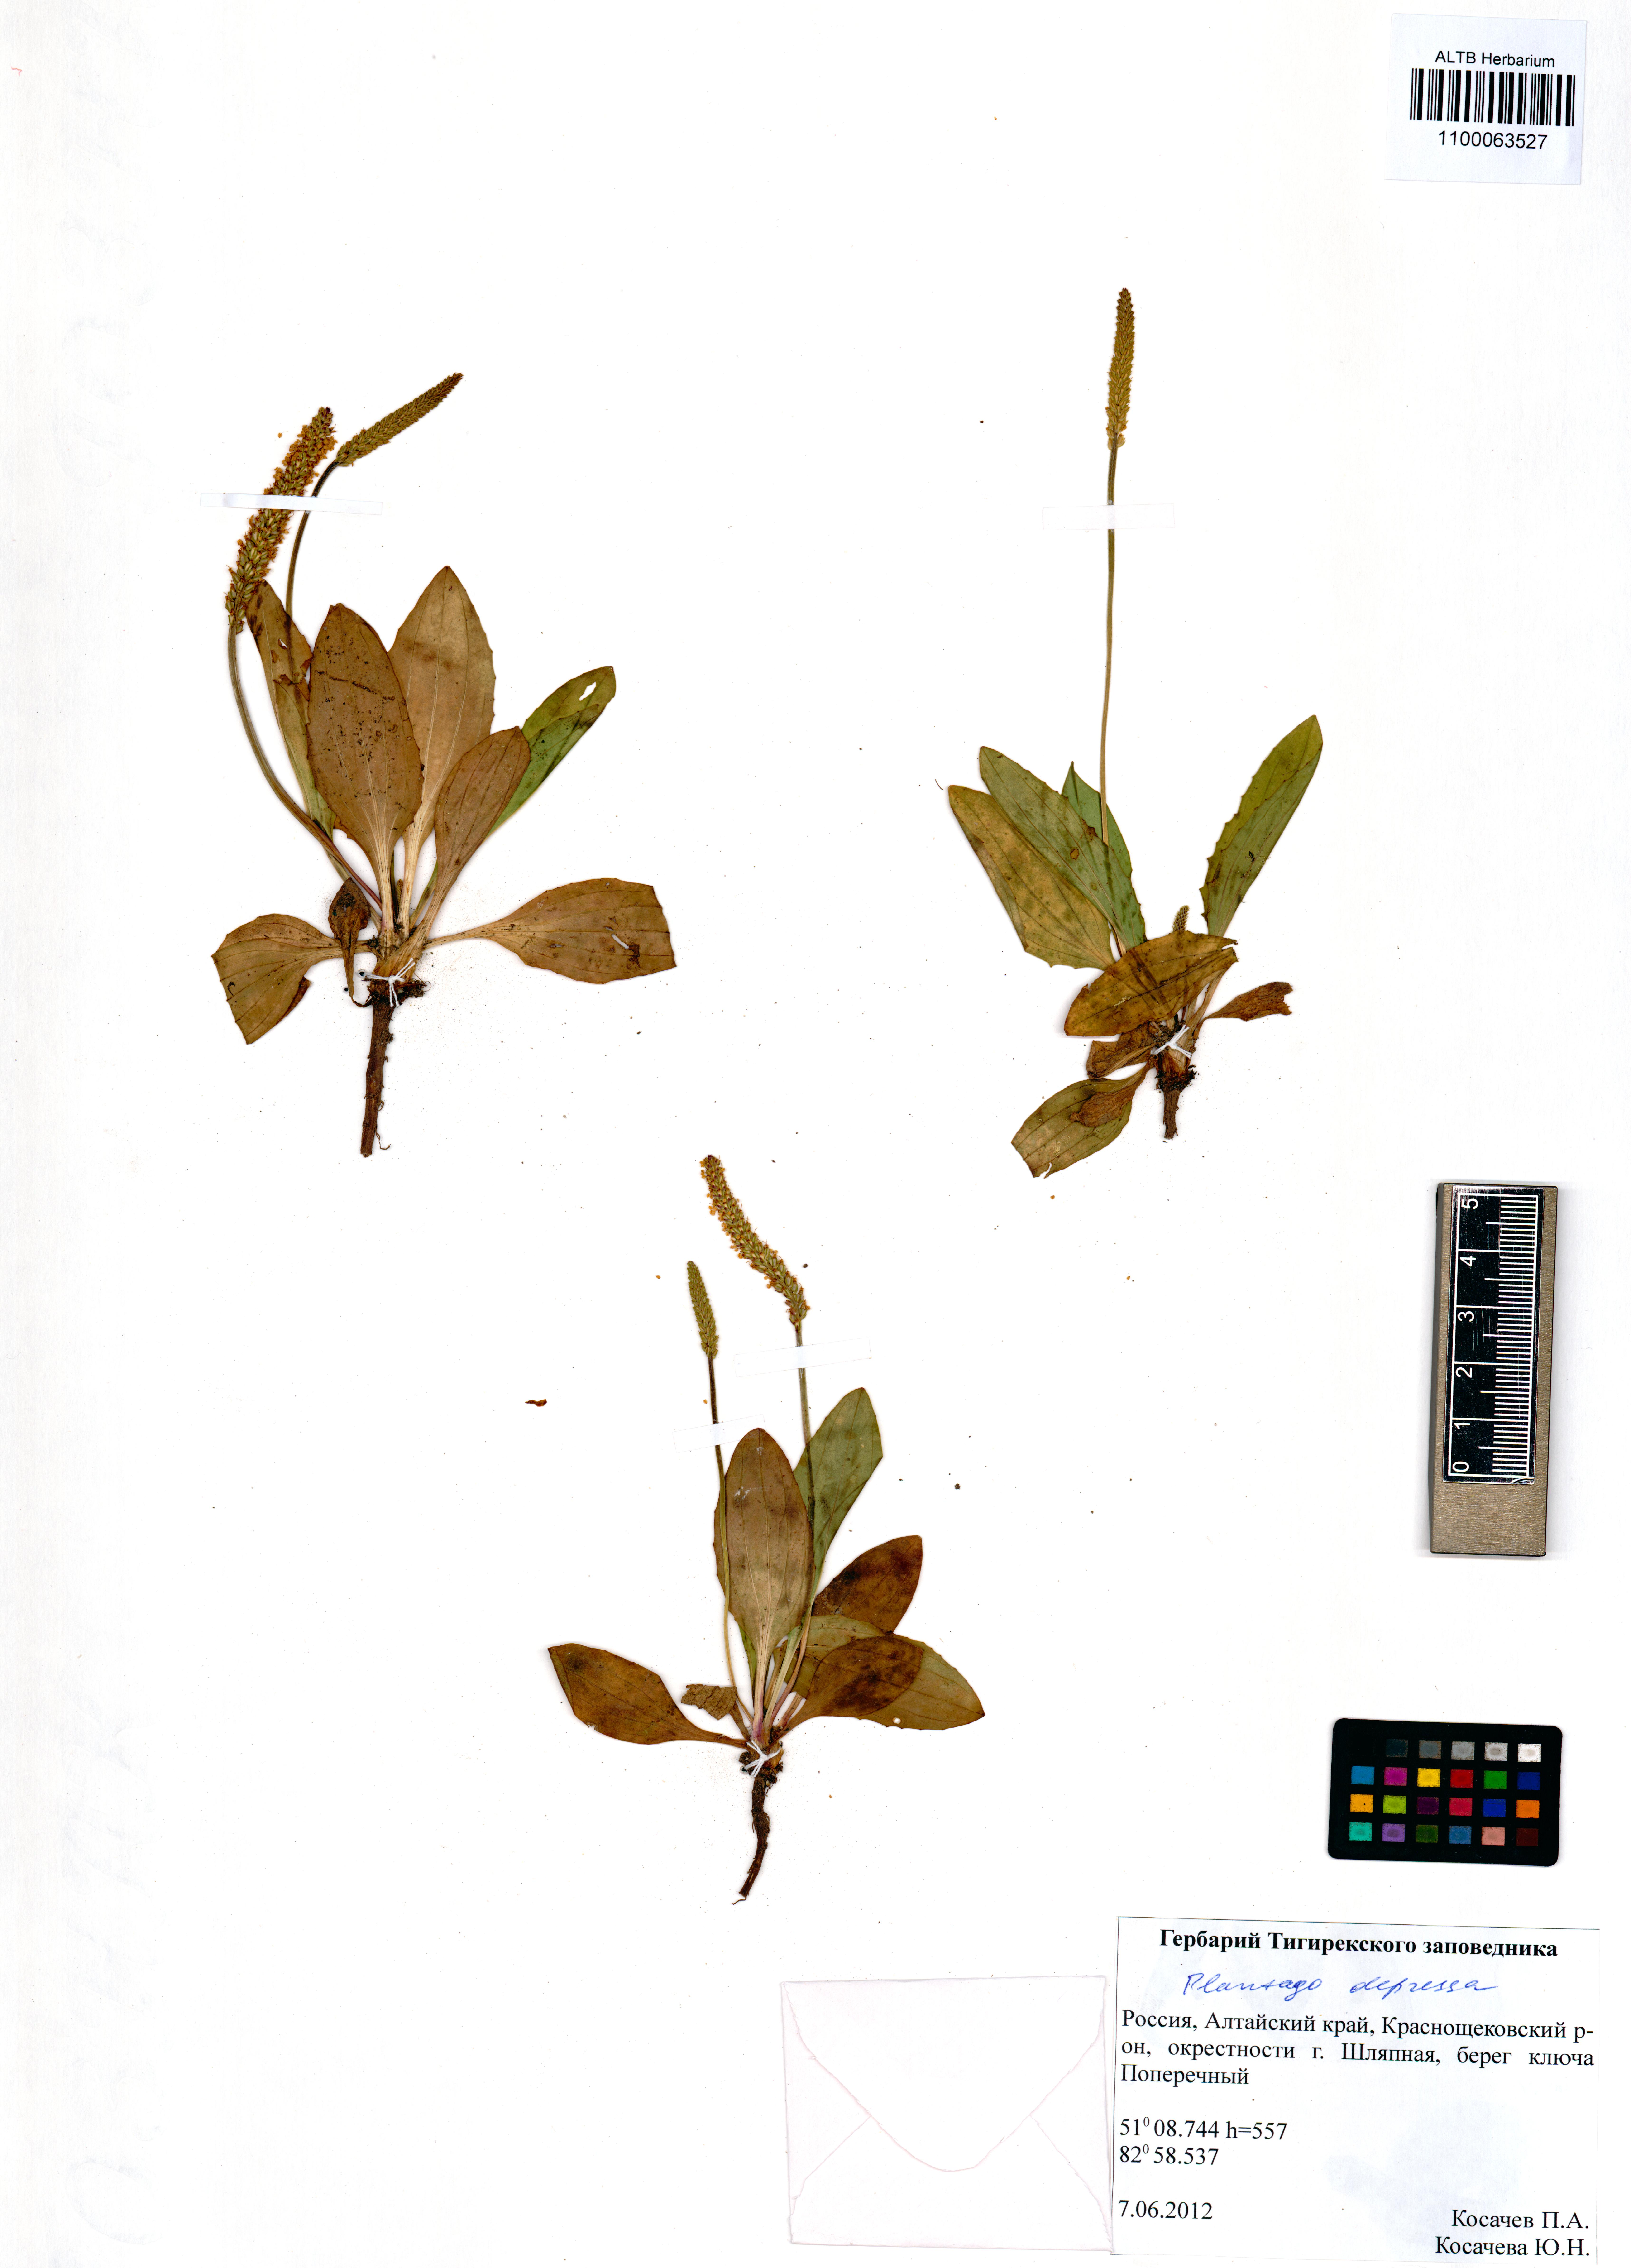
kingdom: Plantae
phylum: Tracheophyta
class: Magnoliopsida
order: Lamiales
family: Plantaginaceae
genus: Plantago
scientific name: Plantago depressa
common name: Depressed plantain
